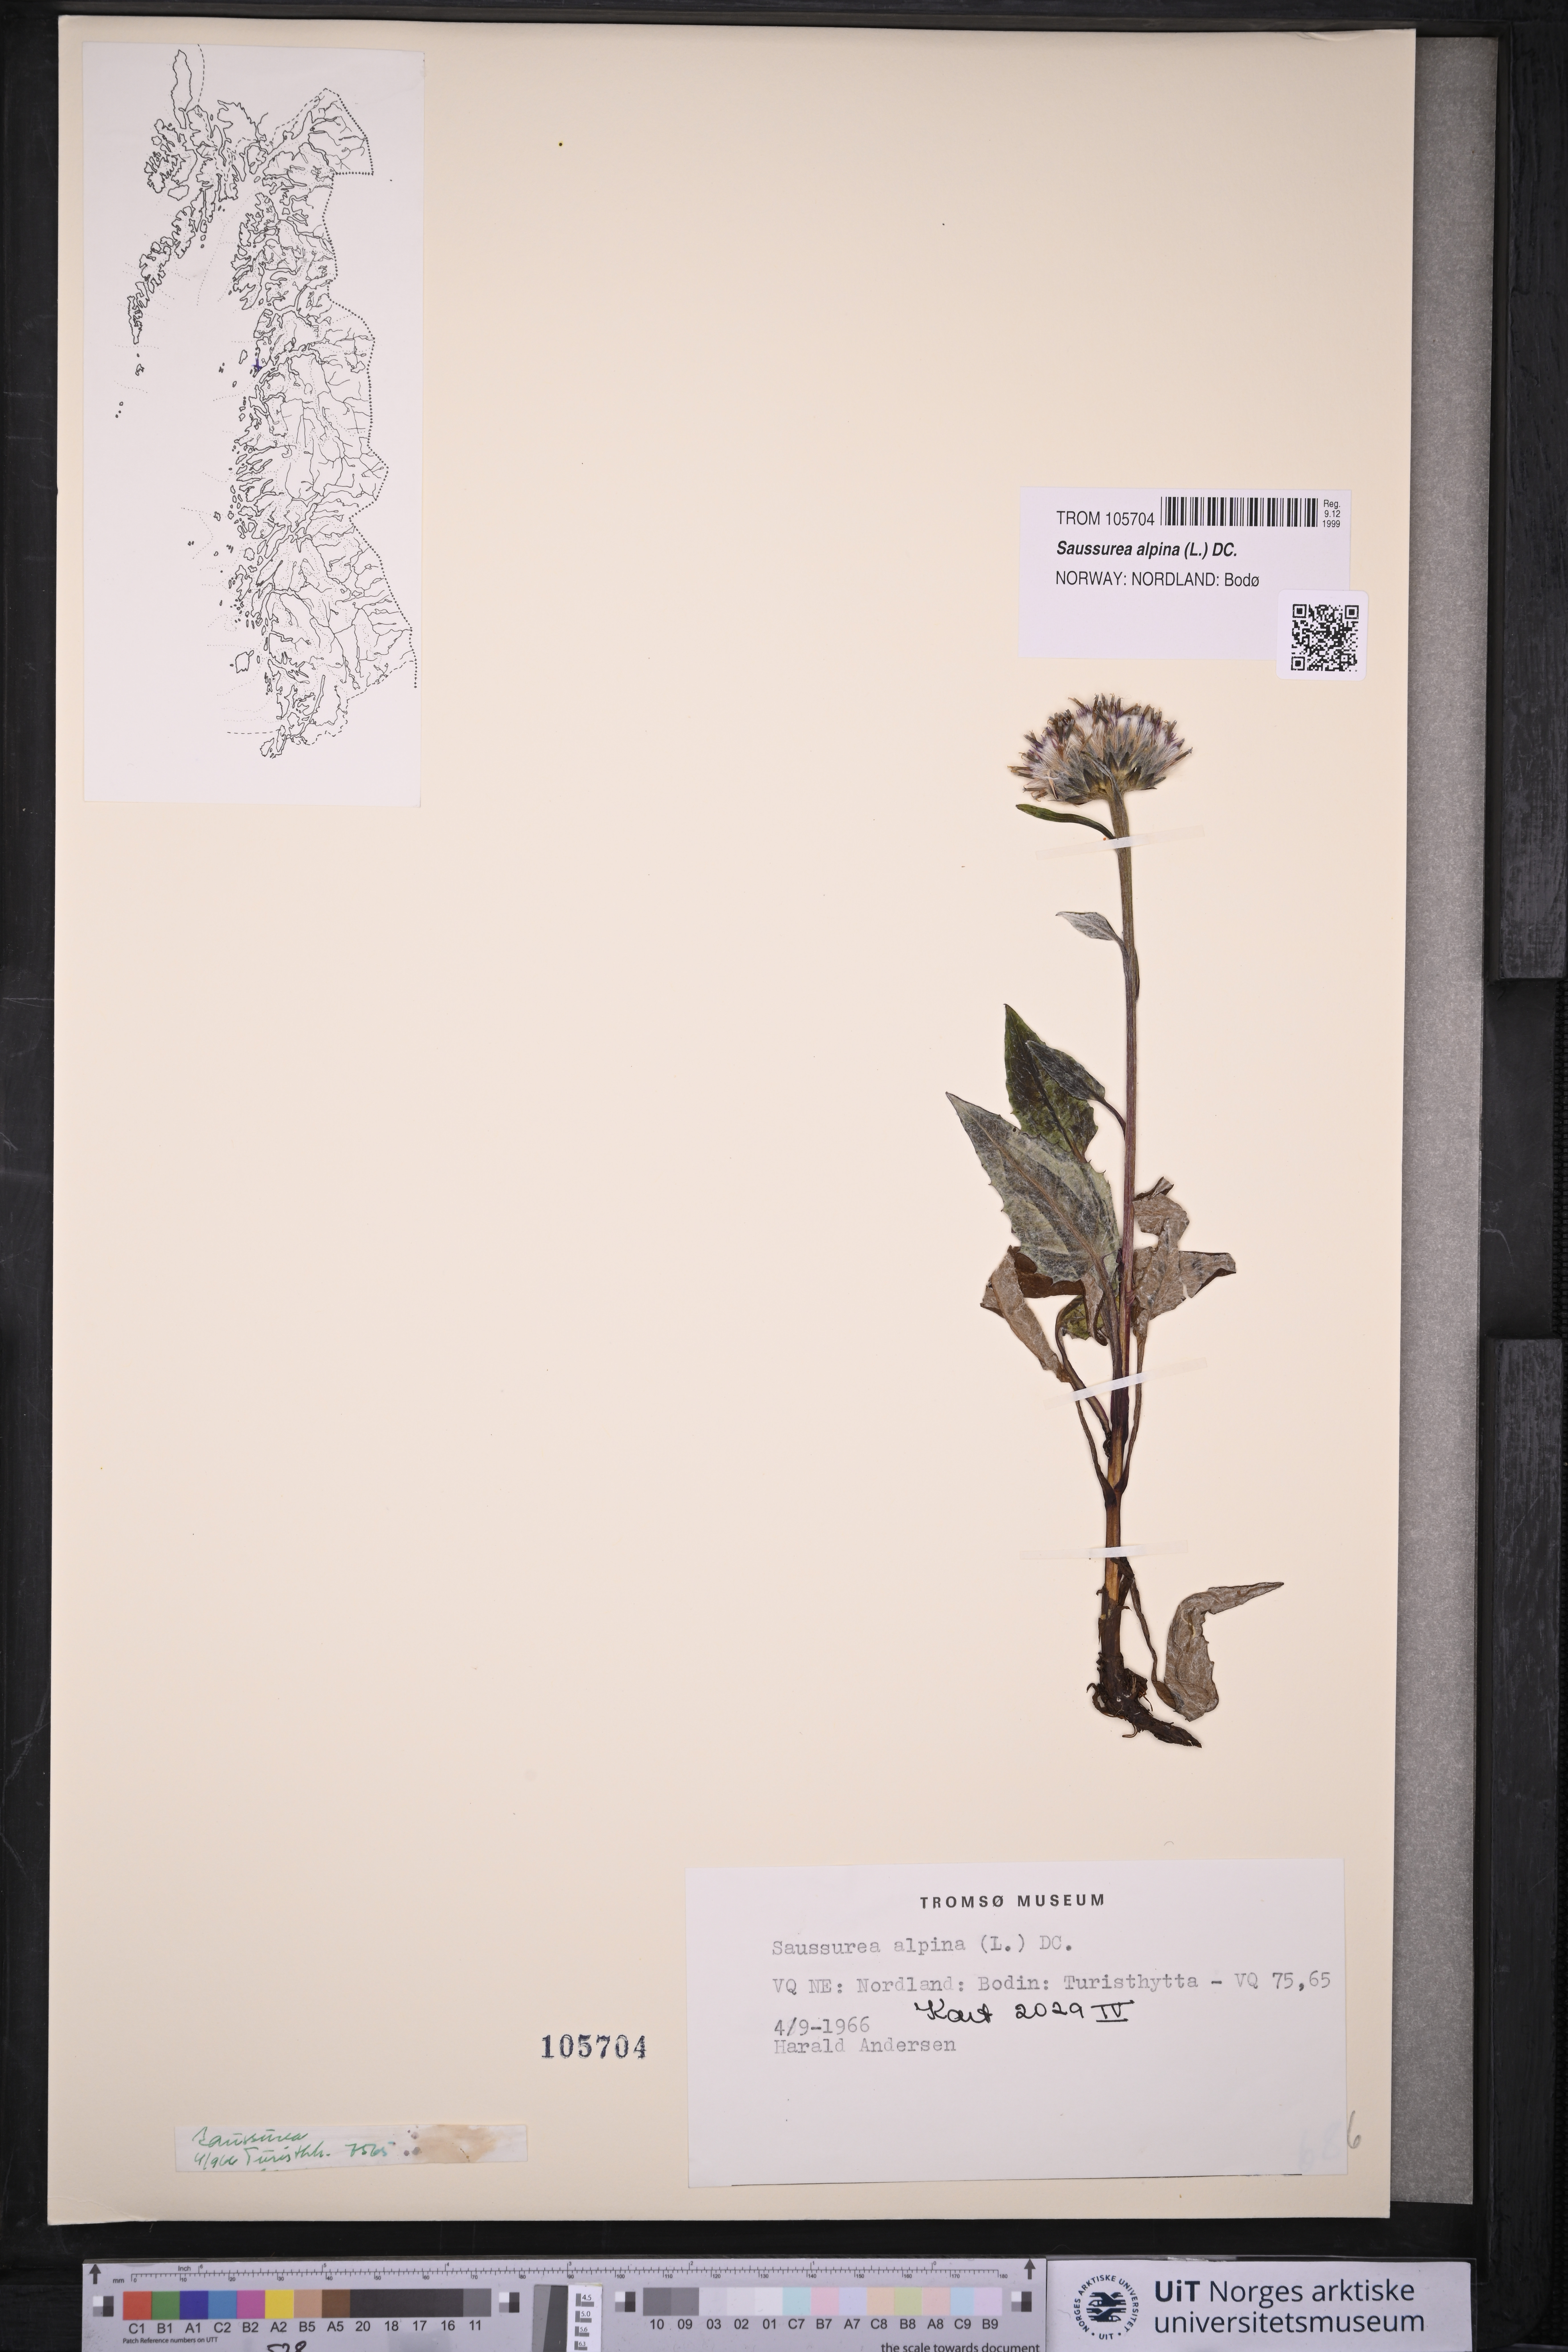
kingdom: Plantae
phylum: Tracheophyta
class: Magnoliopsida
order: Asterales
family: Asteraceae
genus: Saussurea
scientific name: Saussurea alpina
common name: Alpine saw-wort
